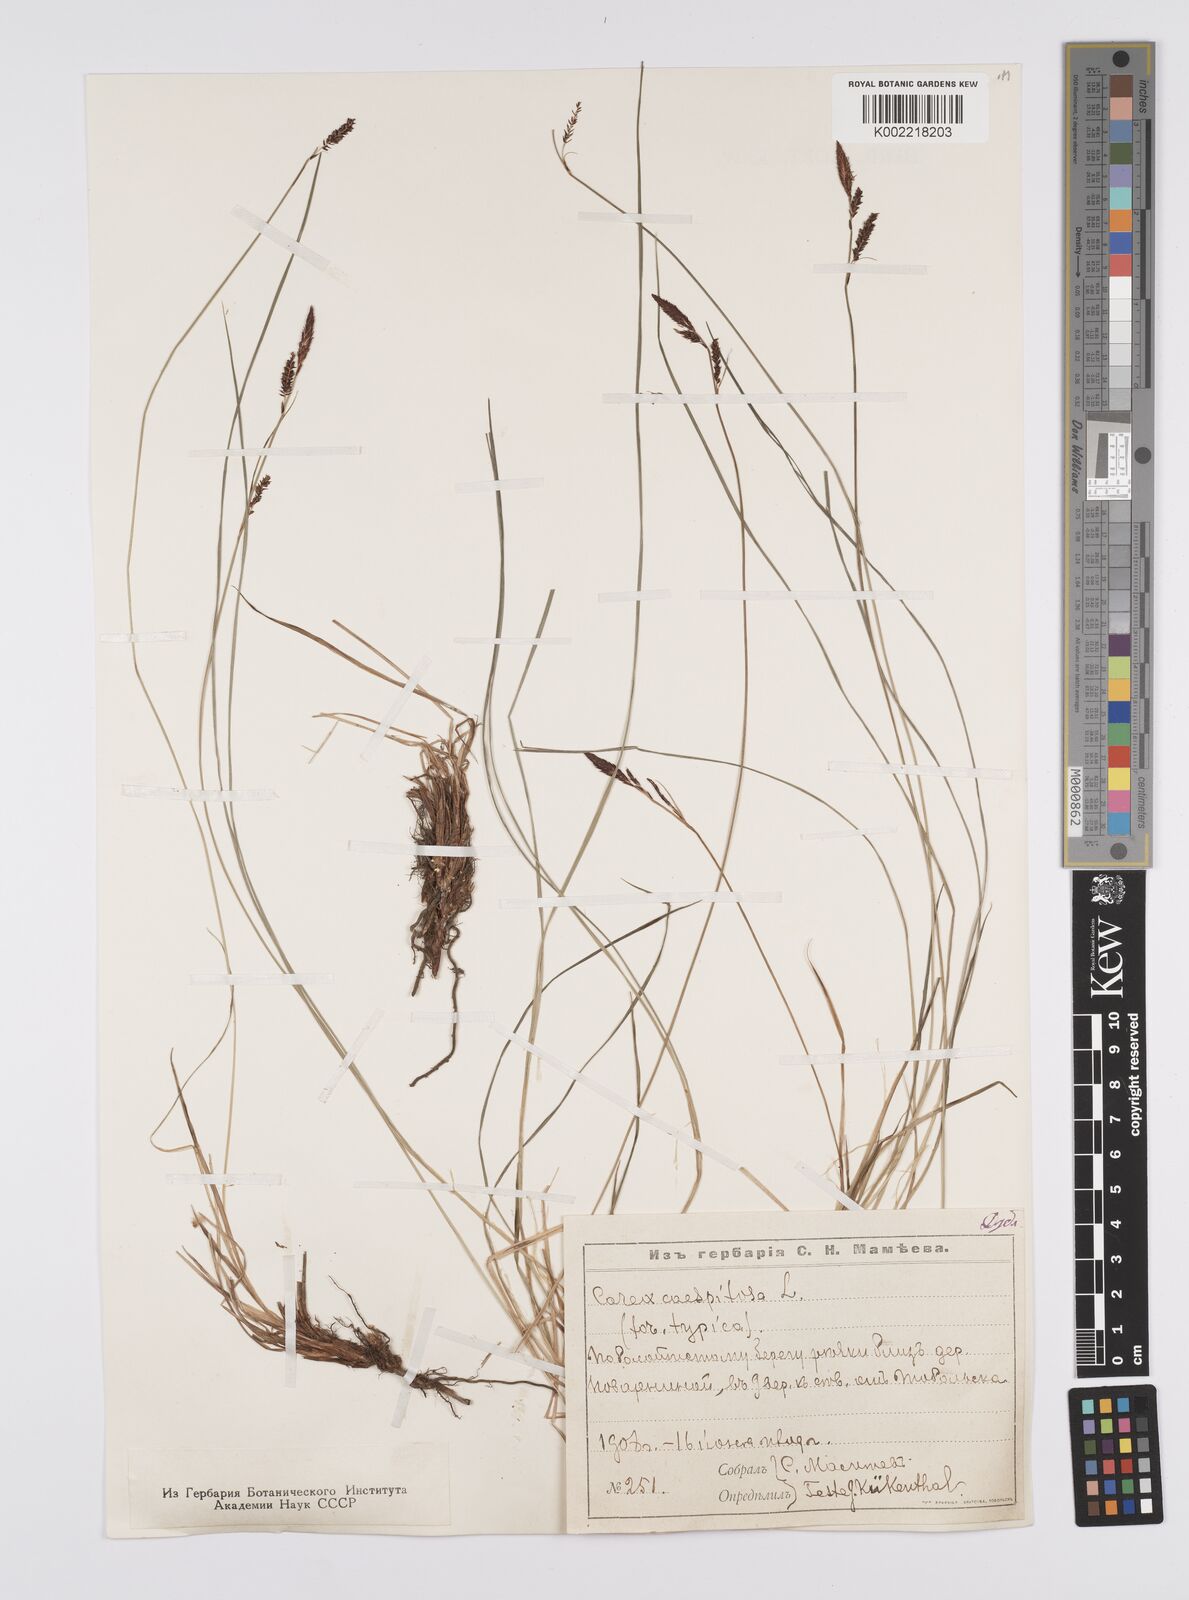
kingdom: Plantae
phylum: Tracheophyta
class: Liliopsida
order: Poales
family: Cyperaceae
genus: Carex
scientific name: Carex
